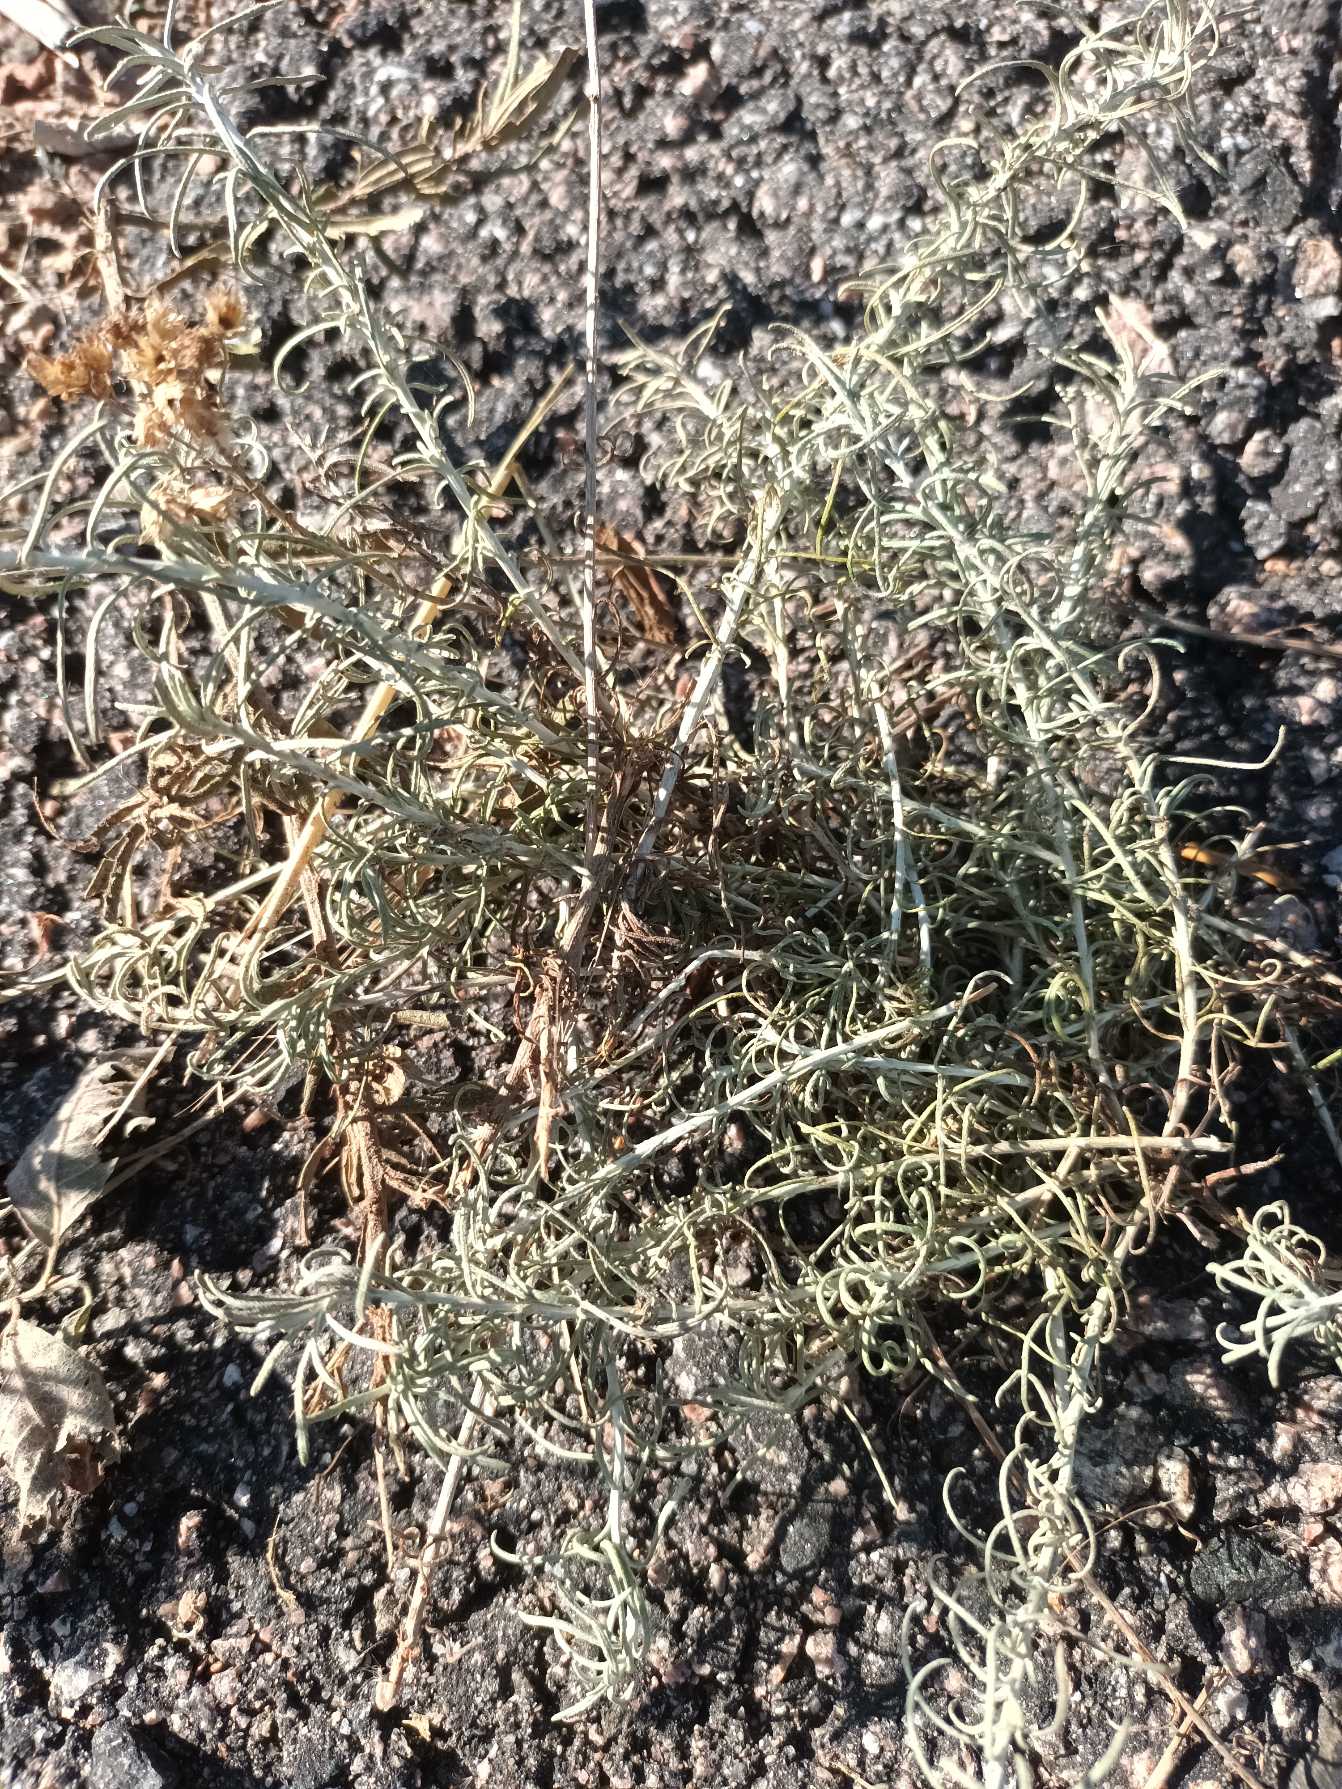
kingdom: Plantae
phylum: Tracheophyta
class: Magnoliopsida
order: Asterales
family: Asteraceae
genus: Helichrysum
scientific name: Helichrysum italicum
